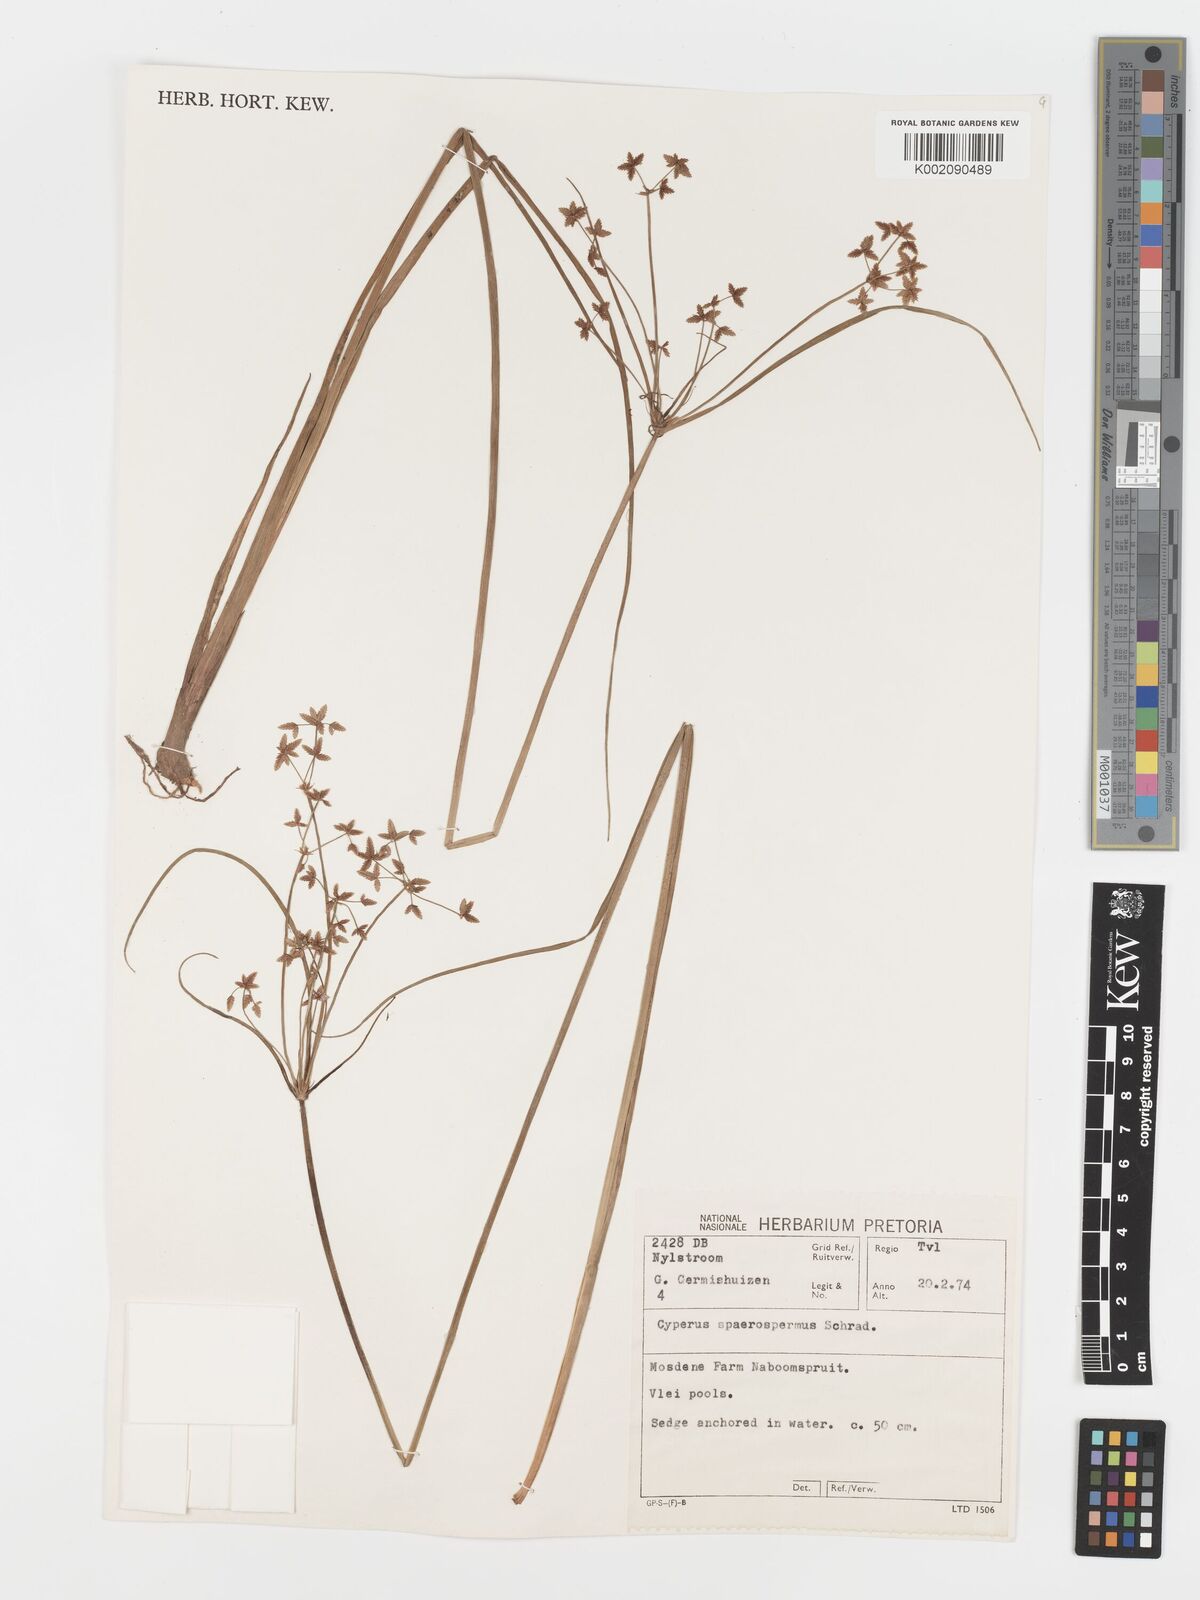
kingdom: Plantae
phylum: Tracheophyta
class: Liliopsida
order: Poales
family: Cyperaceae
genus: Cyperus
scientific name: Cyperus sphaerospermus
